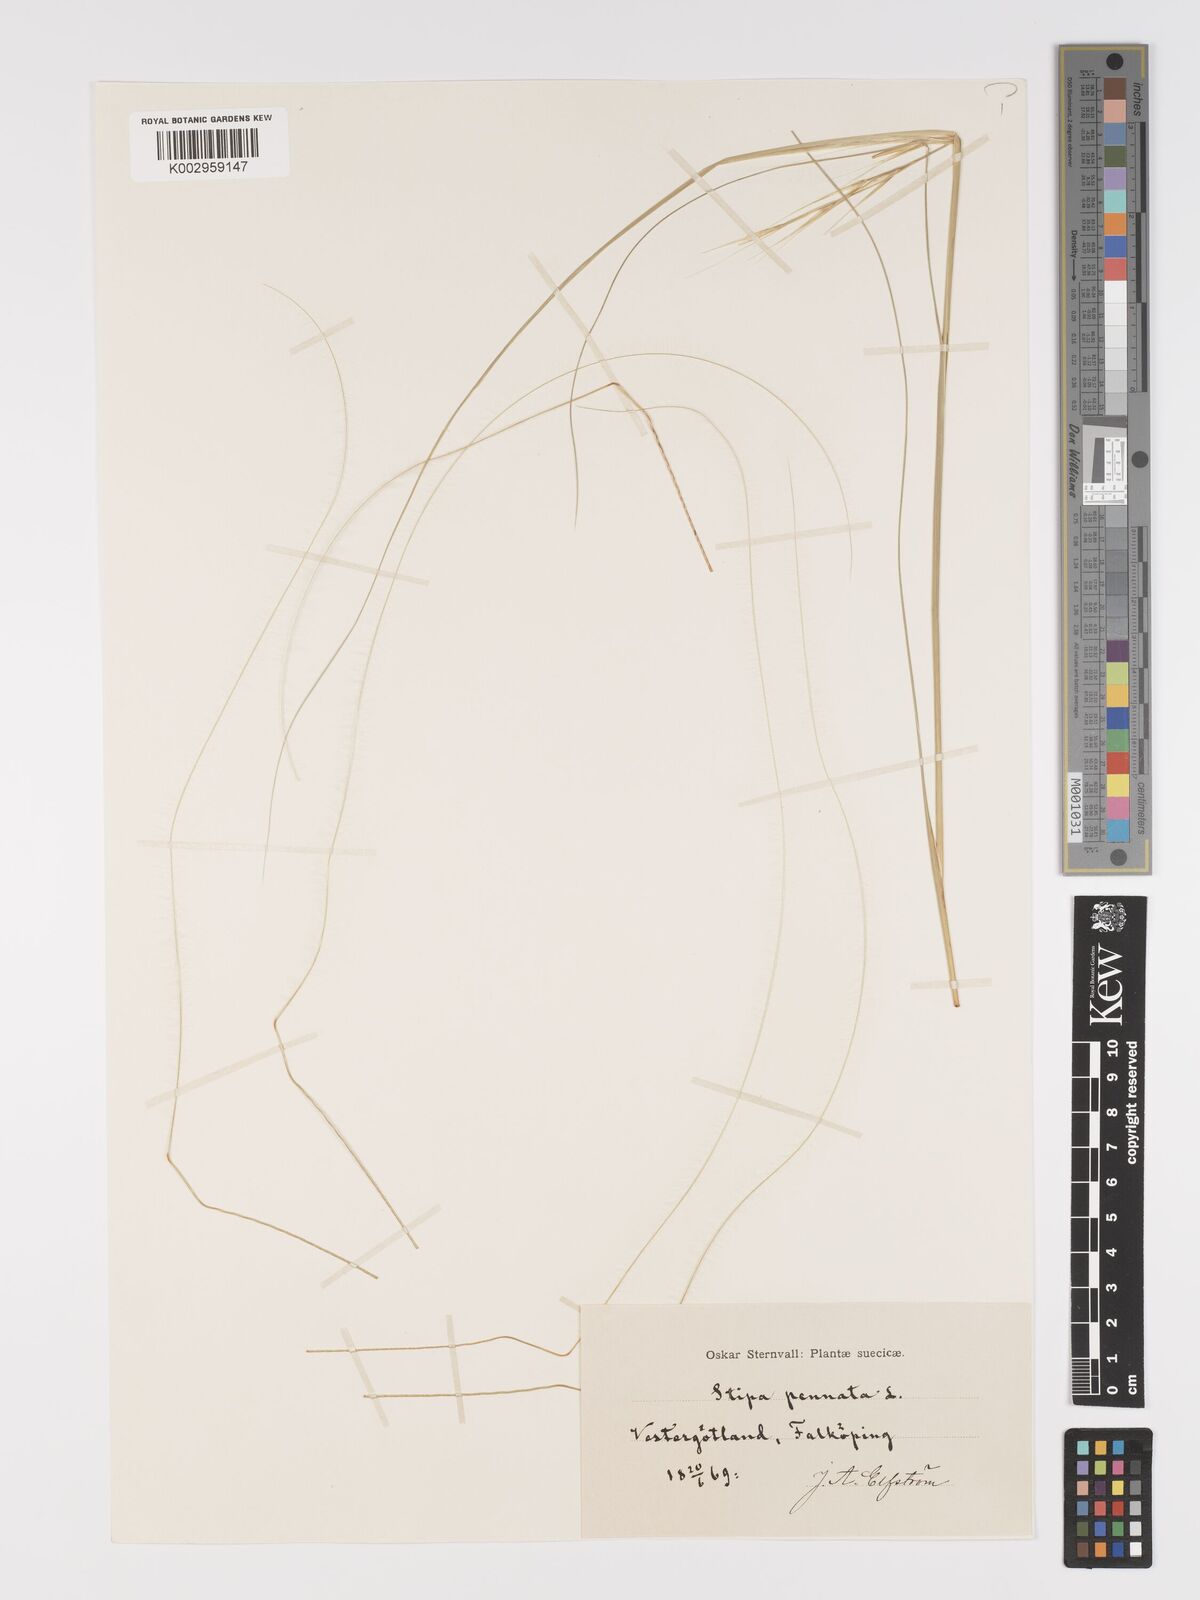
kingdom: Plantae
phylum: Tracheophyta
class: Liliopsida
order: Poales
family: Poaceae
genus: Stipa
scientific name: Stipa pennata
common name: European feather grass
